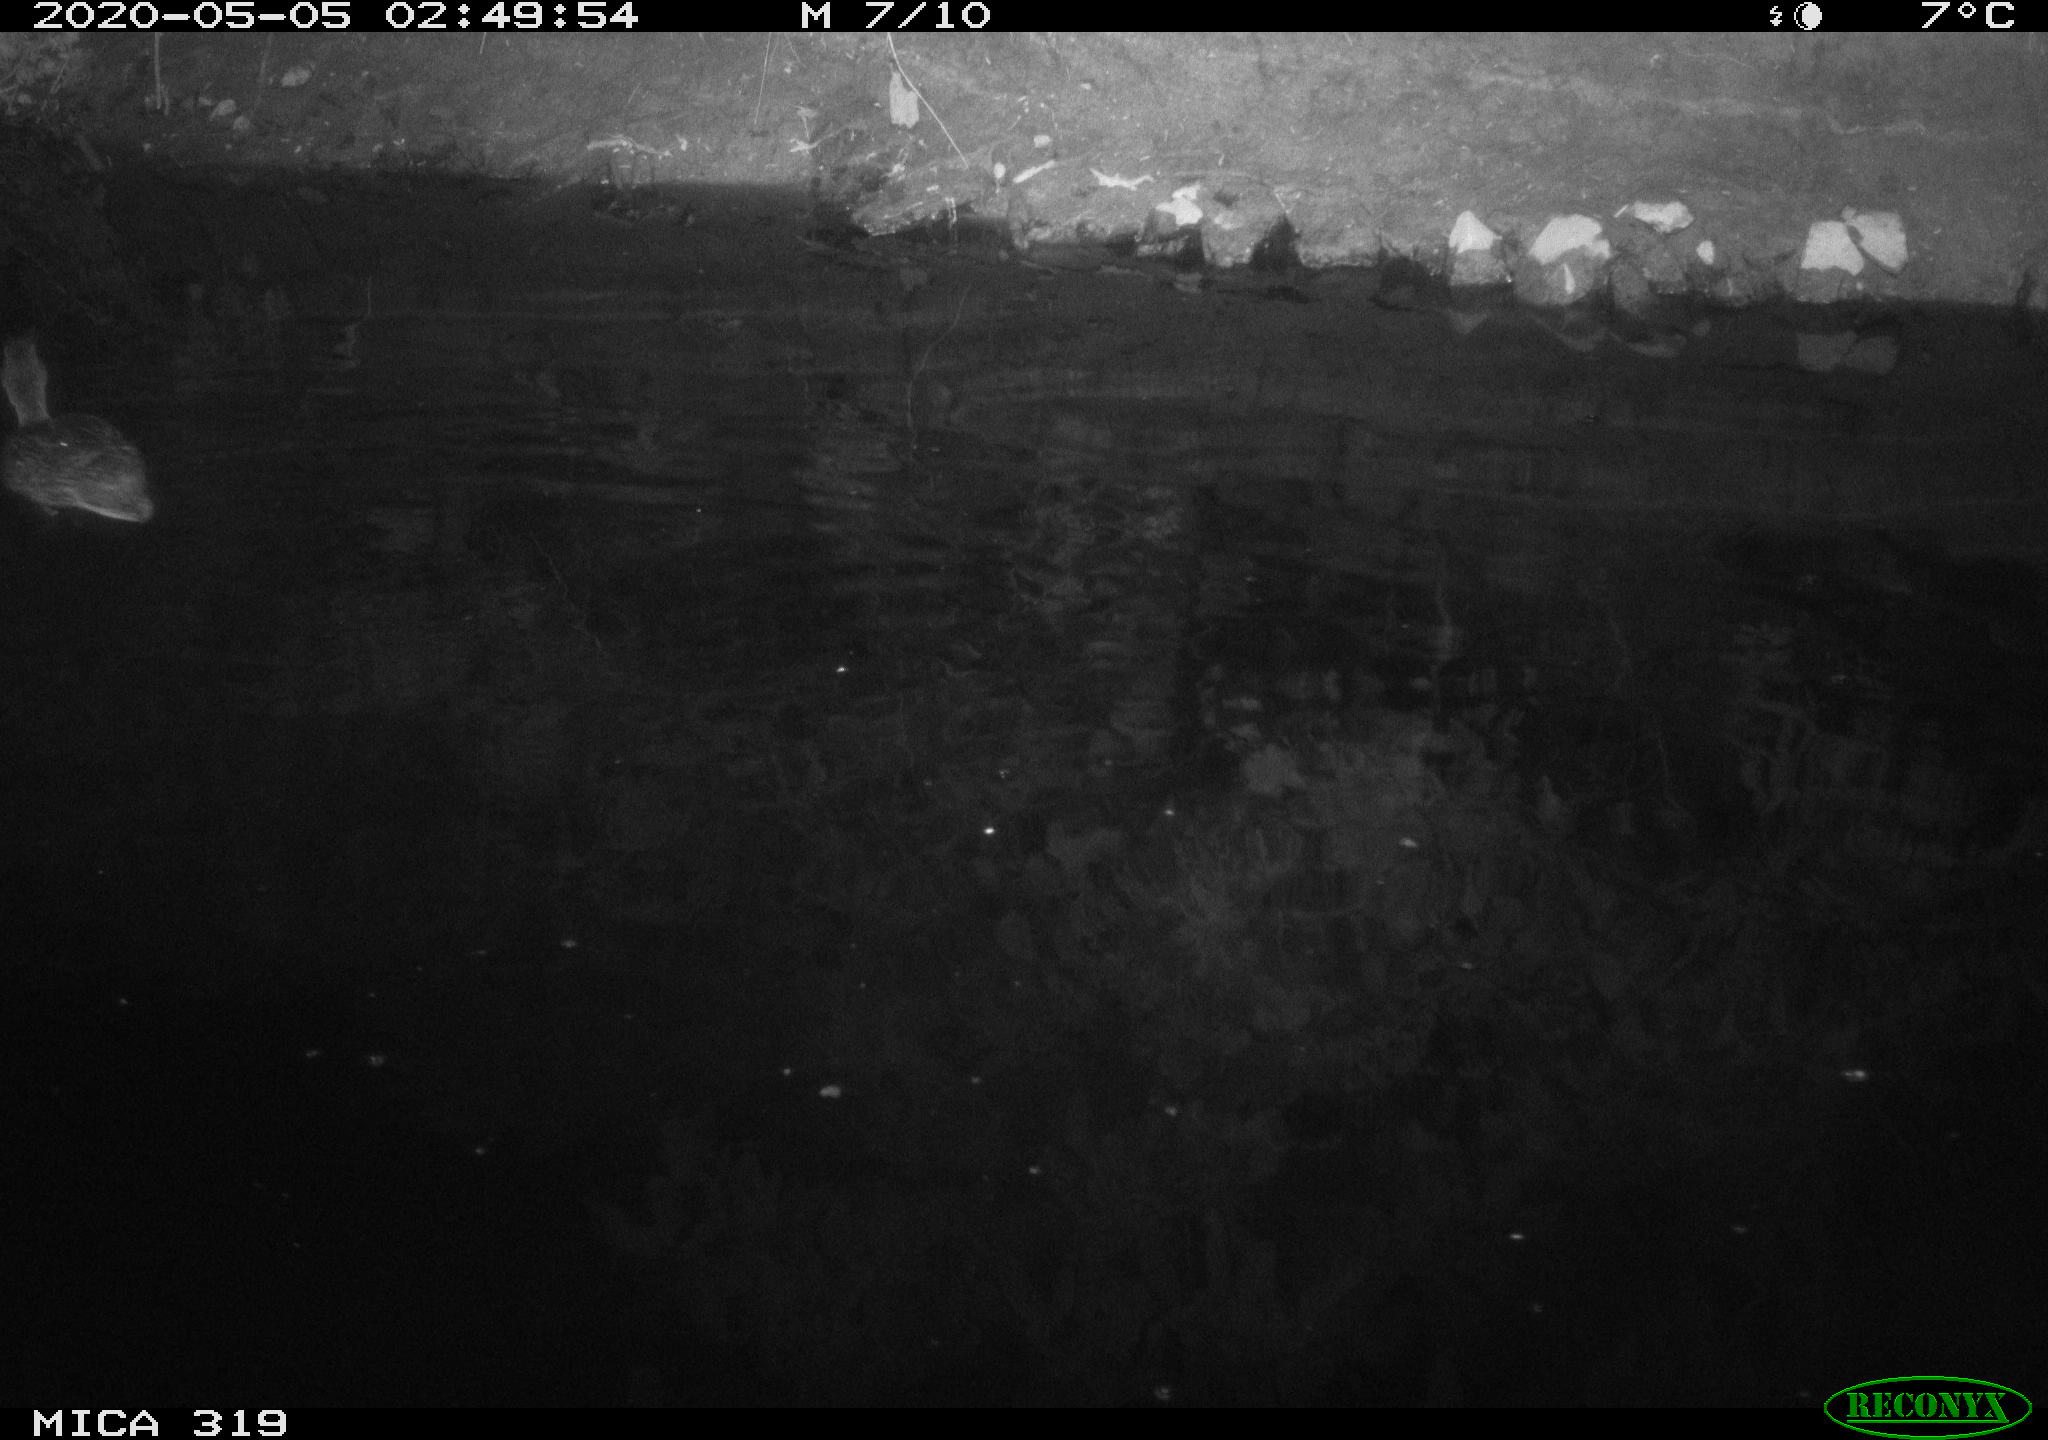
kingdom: Animalia
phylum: Chordata
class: Aves
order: Anseriformes
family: Anatidae
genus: Anas
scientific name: Anas platyrhynchos
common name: Mallard
